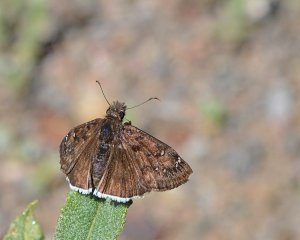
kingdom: Animalia
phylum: Arthropoda
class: Insecta
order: Lepidoptera
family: Hesperiidae
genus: Erynnis
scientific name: Erynnis funeralis
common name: Funereal Duskywing
